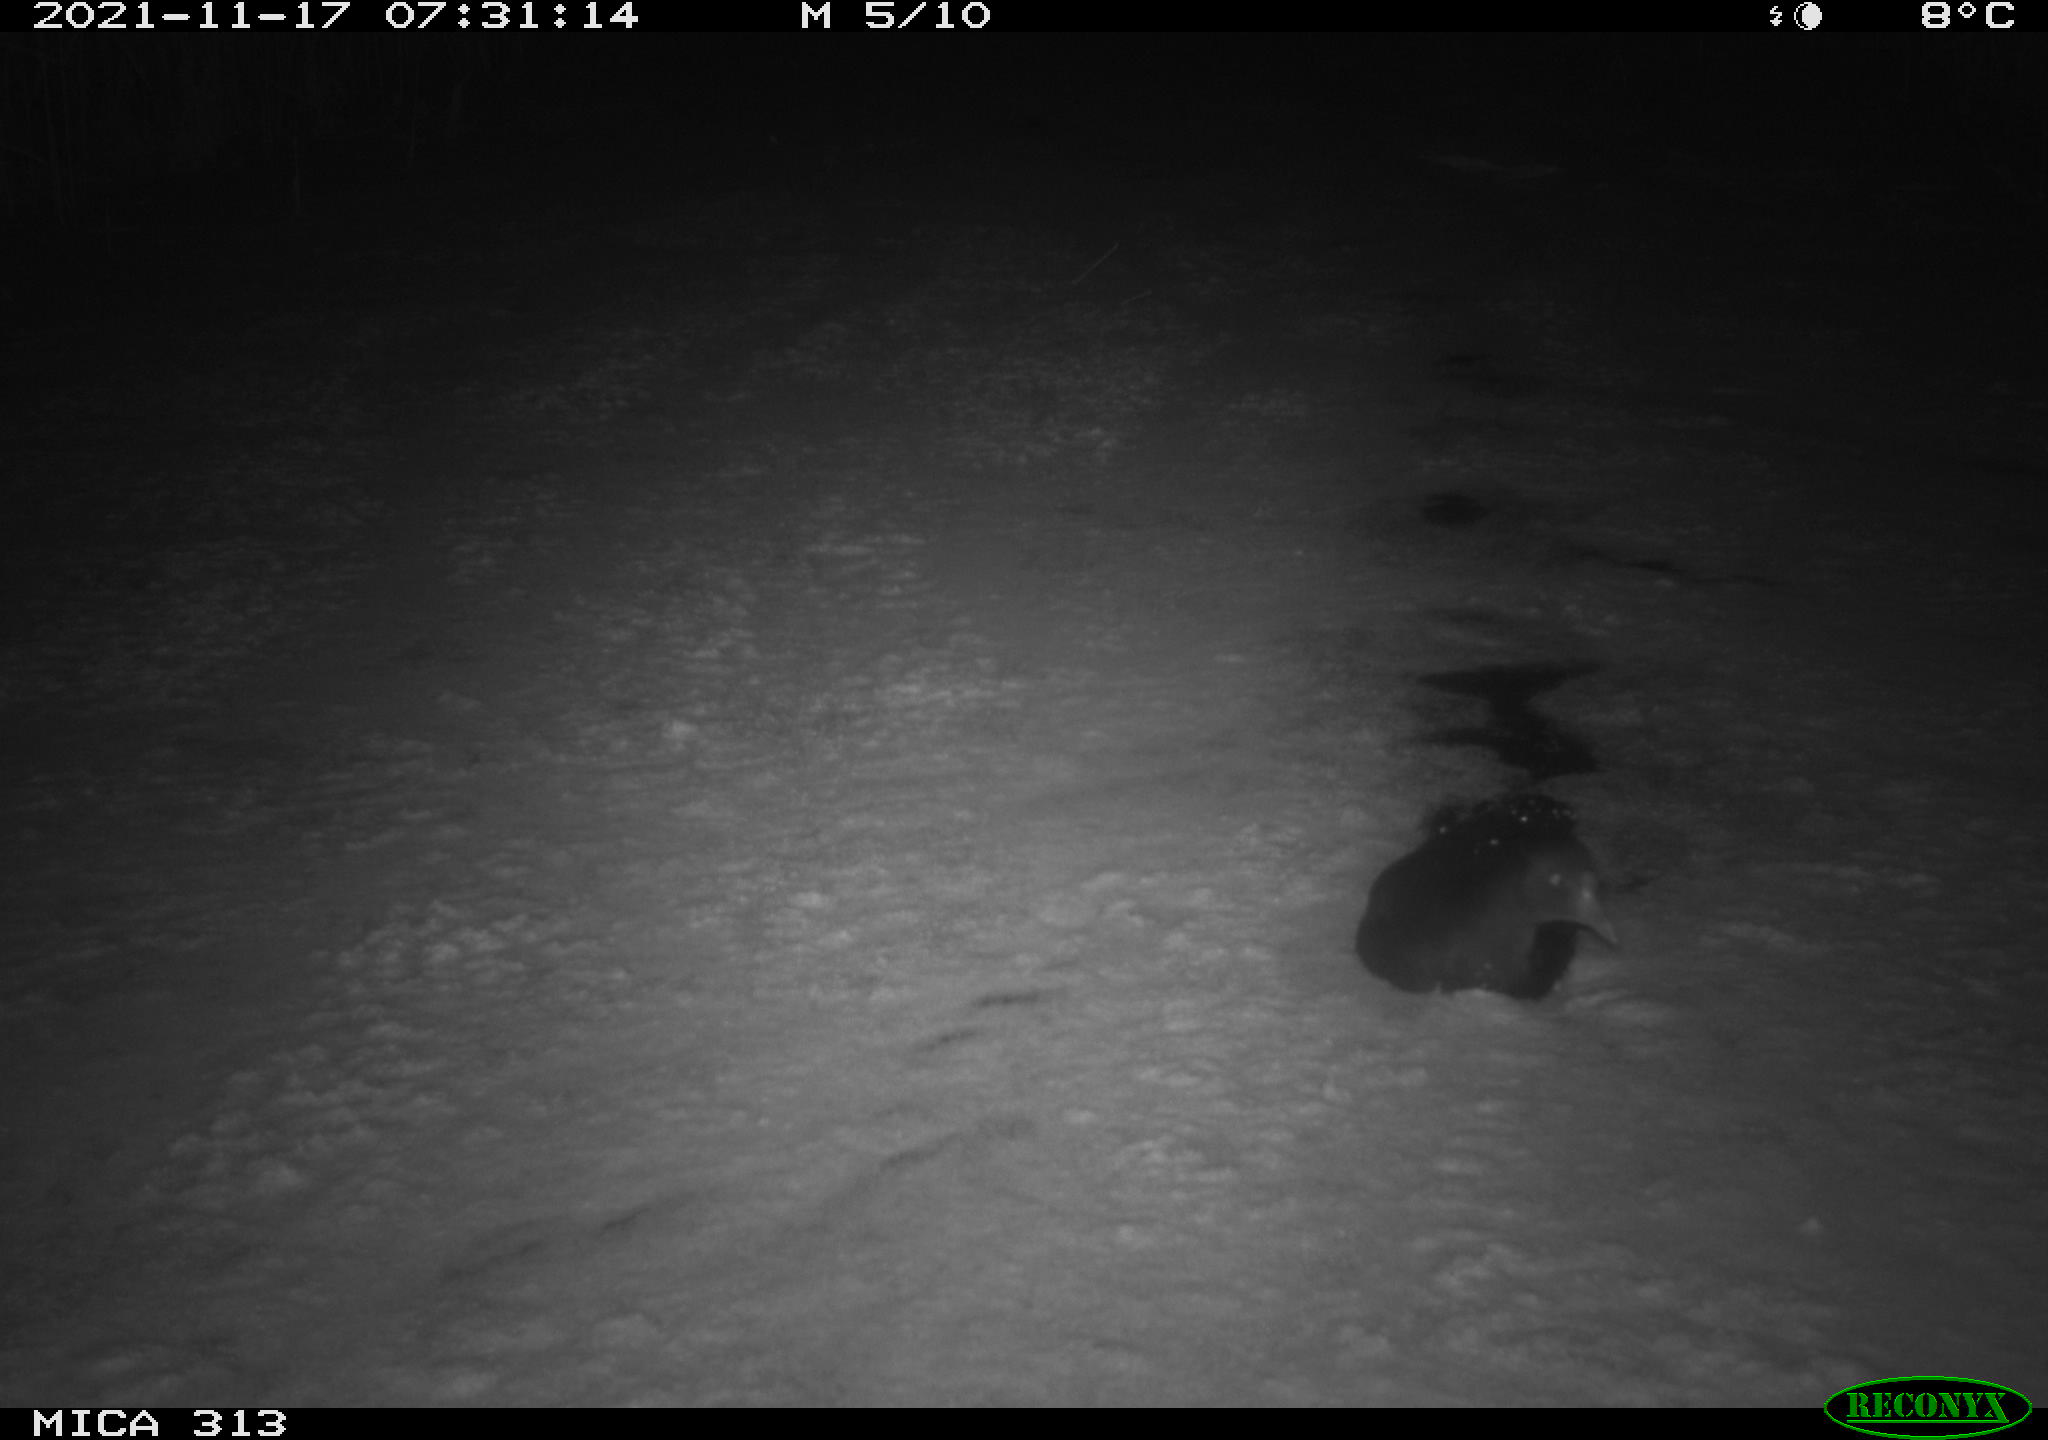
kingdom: Animalia
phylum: Chordata
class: Aves
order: Gruiformes
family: Rallidae
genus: Fulica
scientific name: Fulica atra
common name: Eurasian coot
